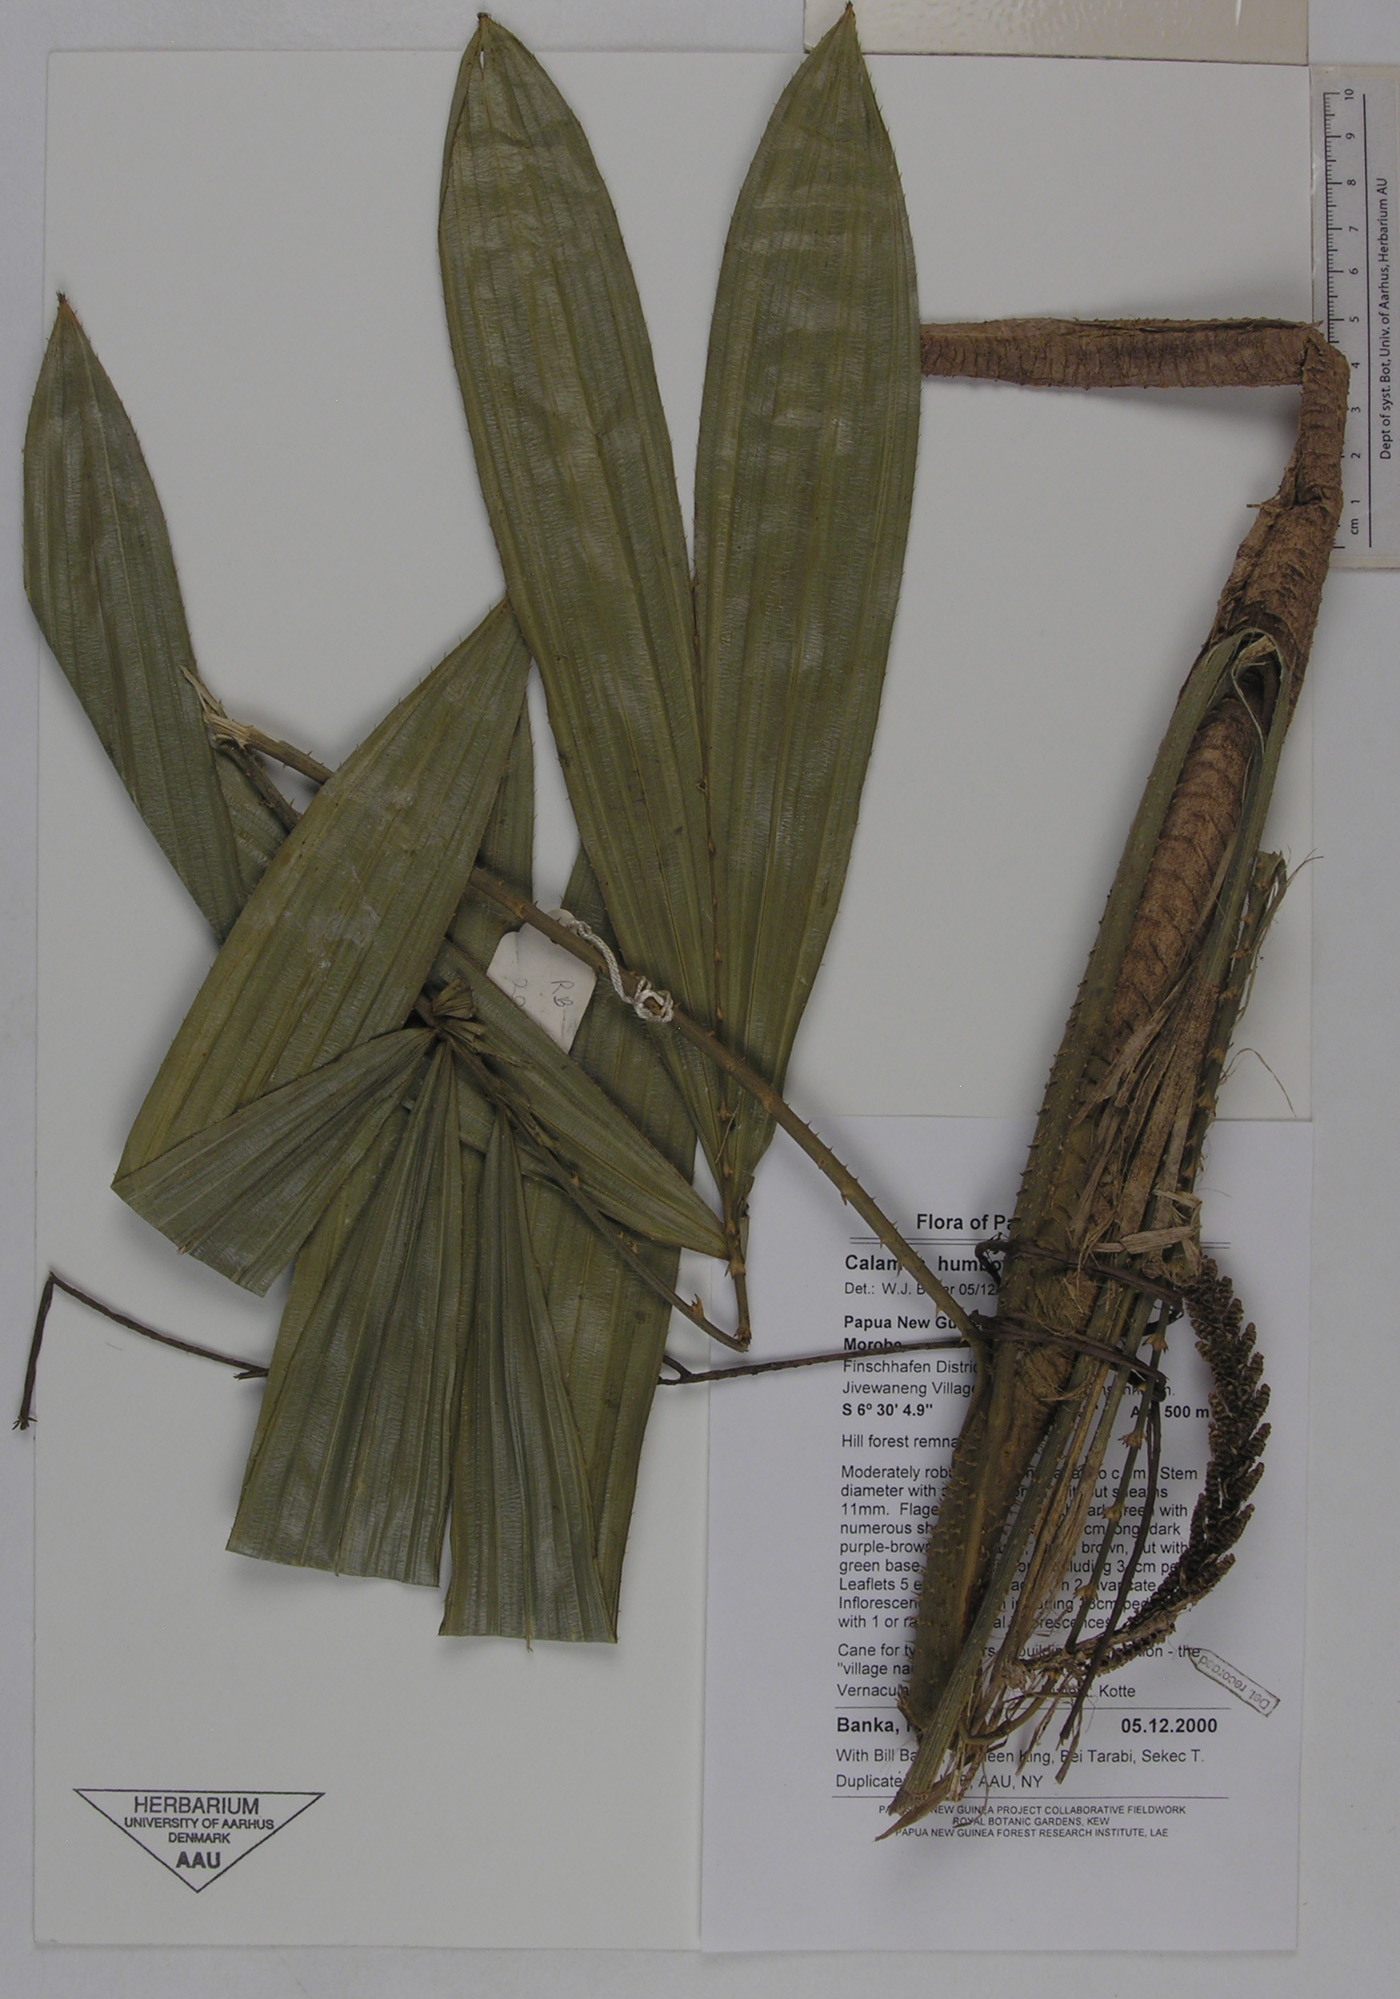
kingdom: Plantae
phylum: Tracheophyta
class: Liliopsida
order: Arecales
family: Arecaceae
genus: Calamus
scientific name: Calamus lauterbachii
